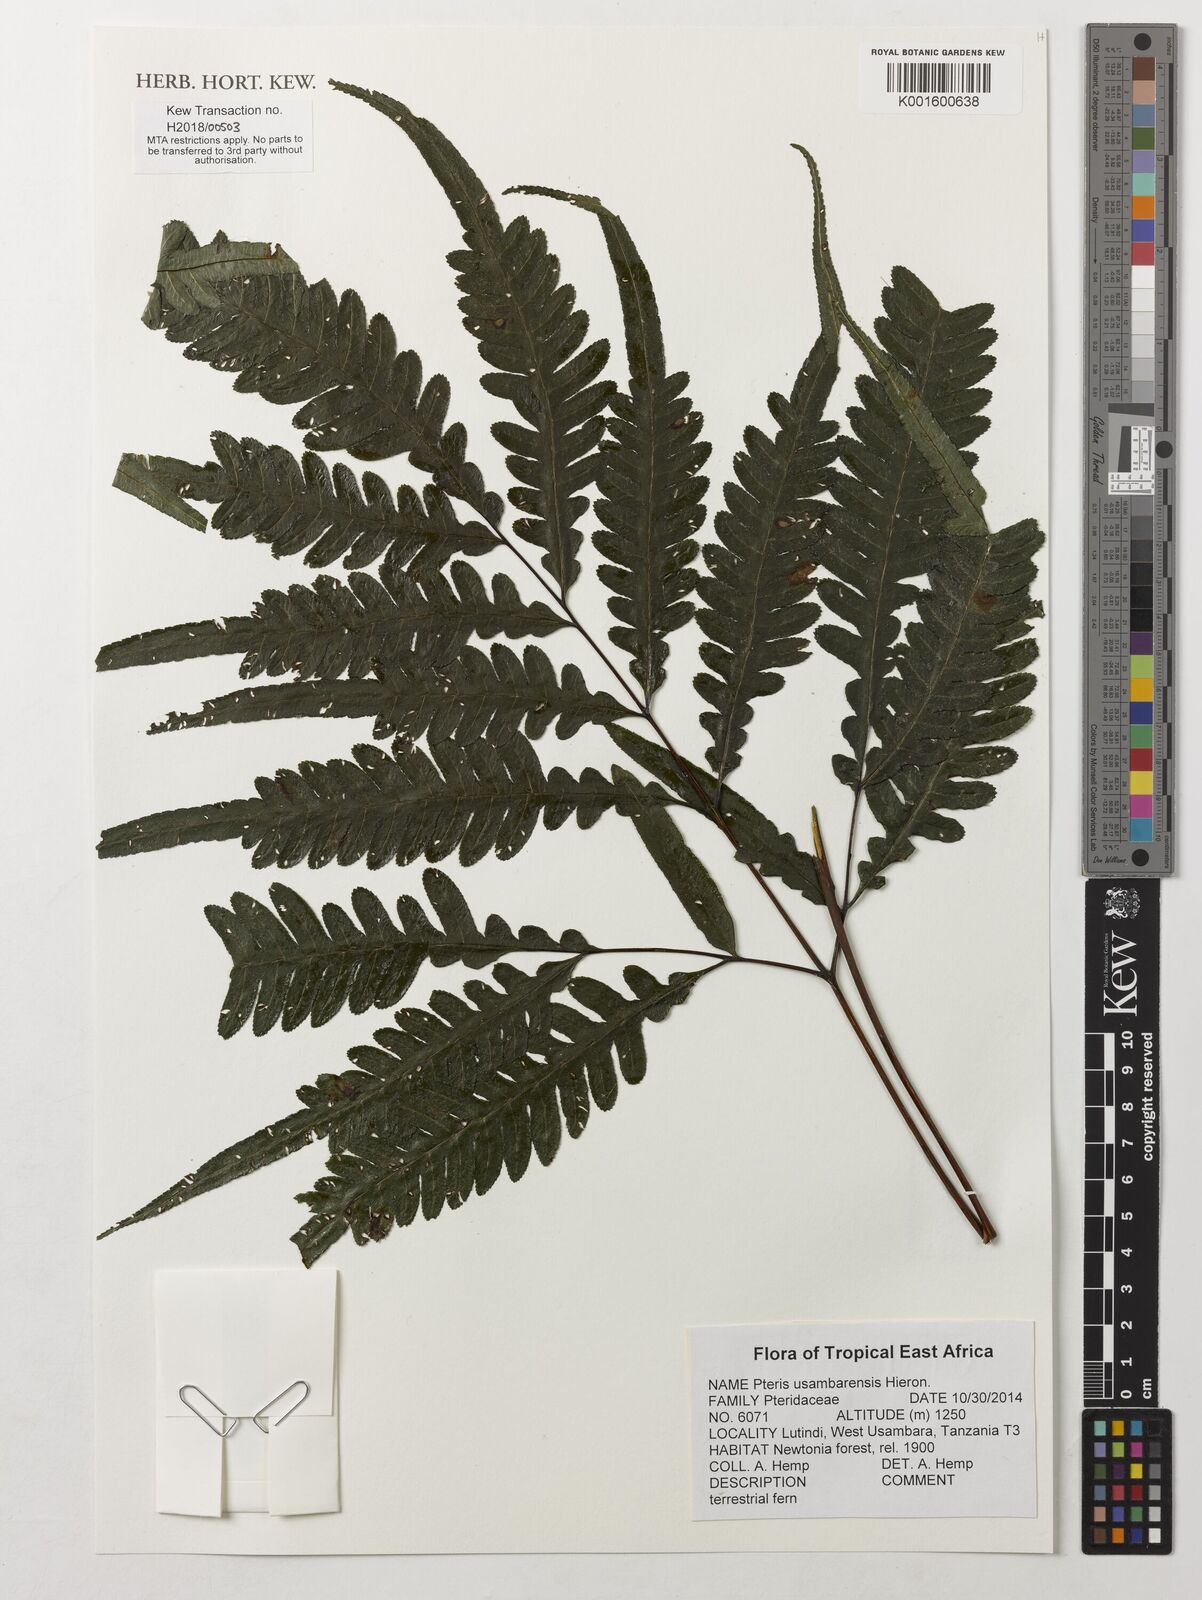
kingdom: Plantae
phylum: Tracheophyta
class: Polypodiopsida
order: Polypodiales
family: Pteridaceae
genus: Pteris
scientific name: Pteris usambarensis
